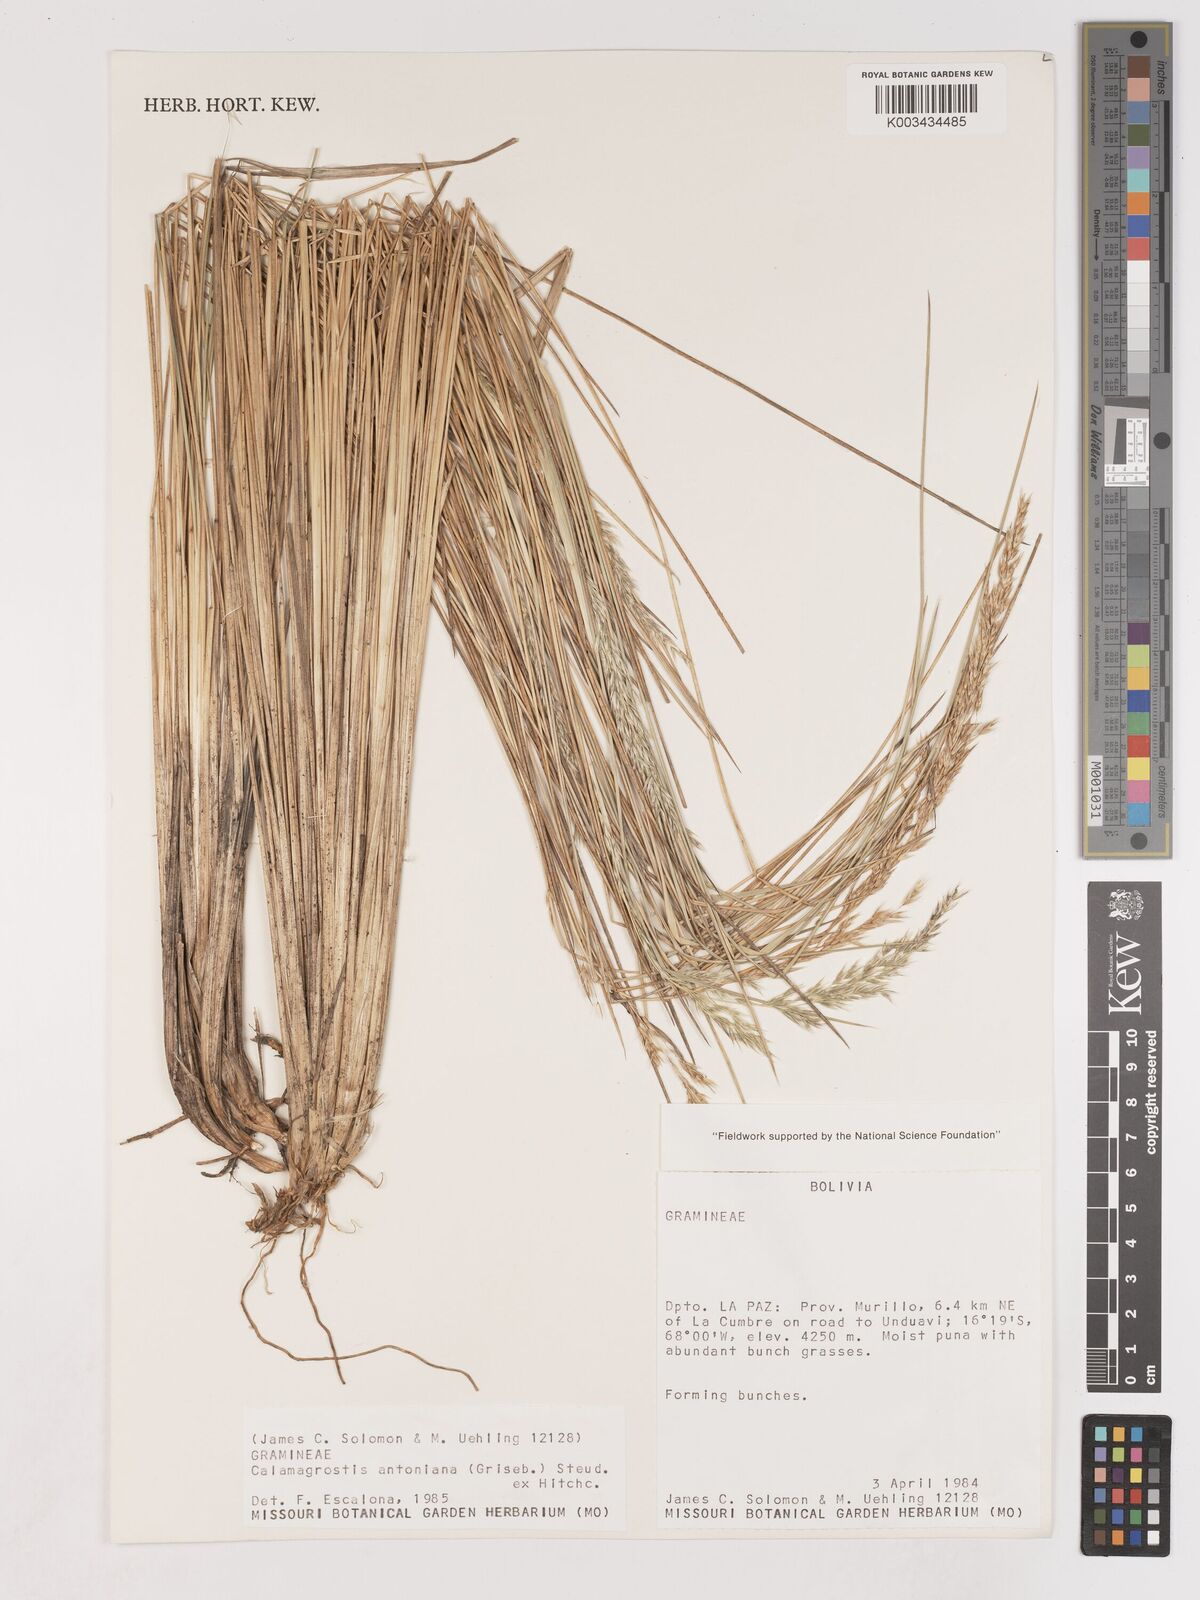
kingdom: Plantae
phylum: Tracheophyta
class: Liliopsida
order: Poales
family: Poaceae
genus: Cinnagrostis
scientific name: Cinnagrostis rigida
